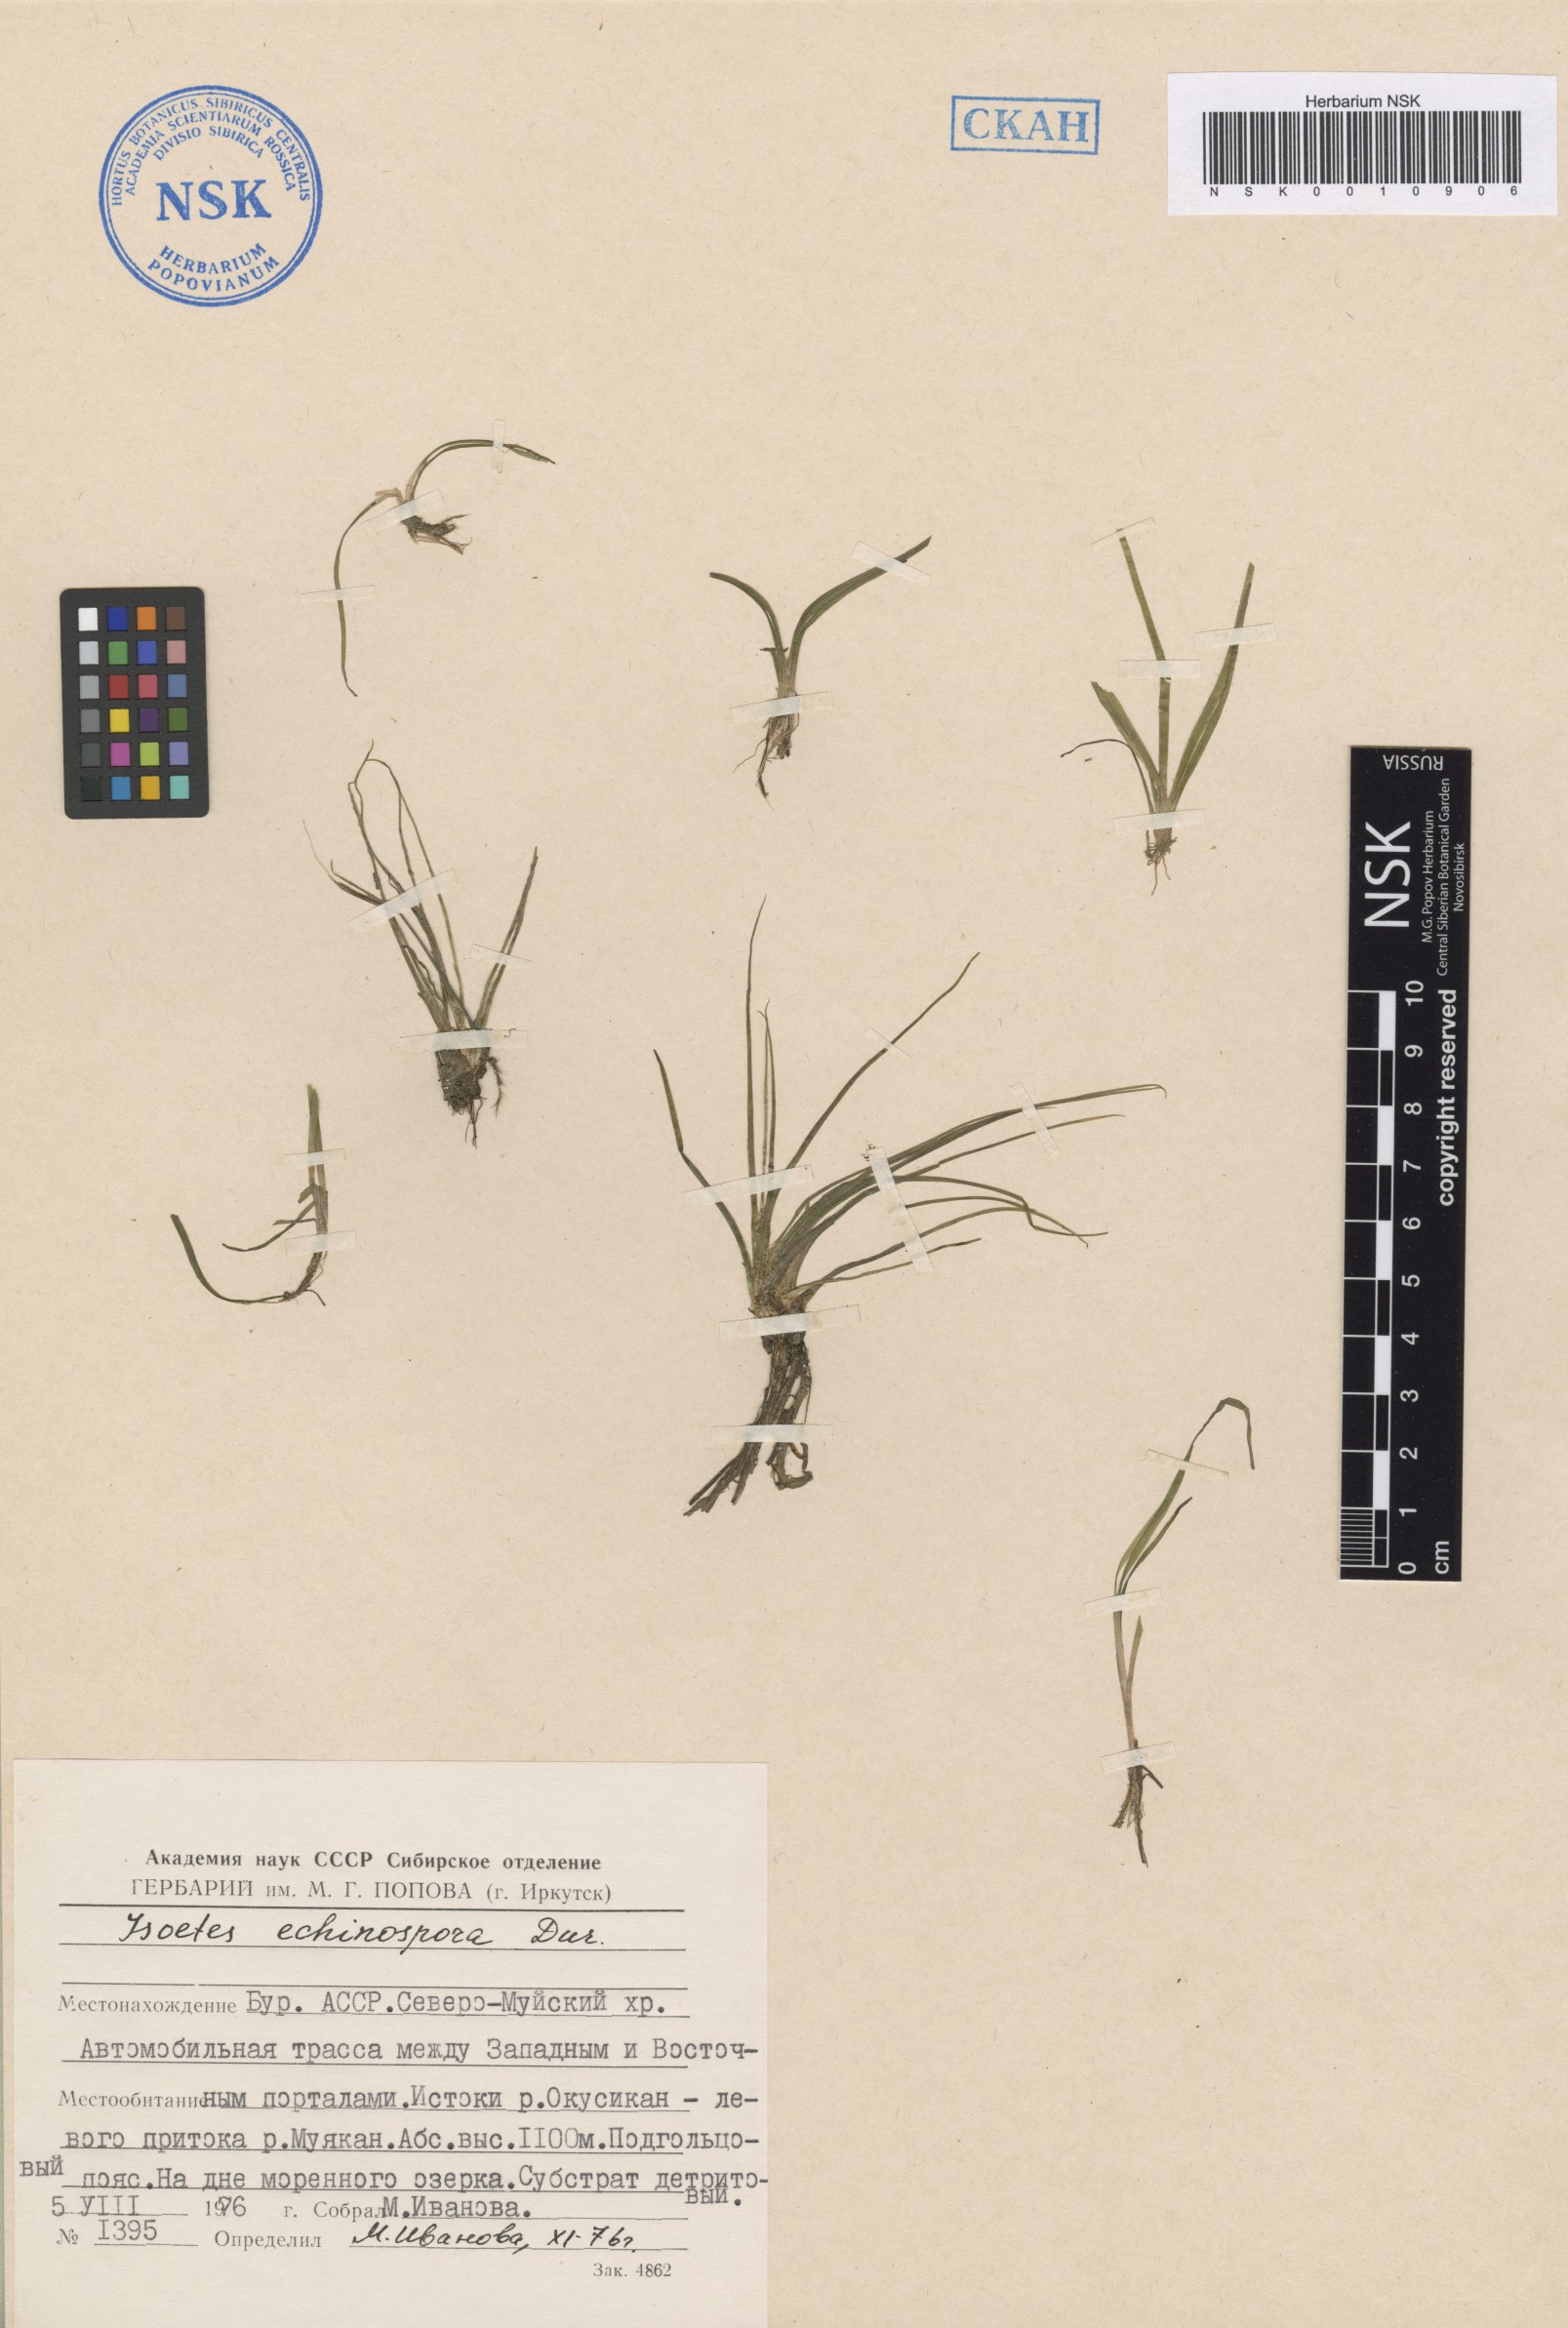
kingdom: Plantae
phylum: Tracheophyta
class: Lycopodiopsida
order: Isoetales
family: Isoetaceae
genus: Isoetes
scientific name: Isoetes echinospora
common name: Spring quillwort
